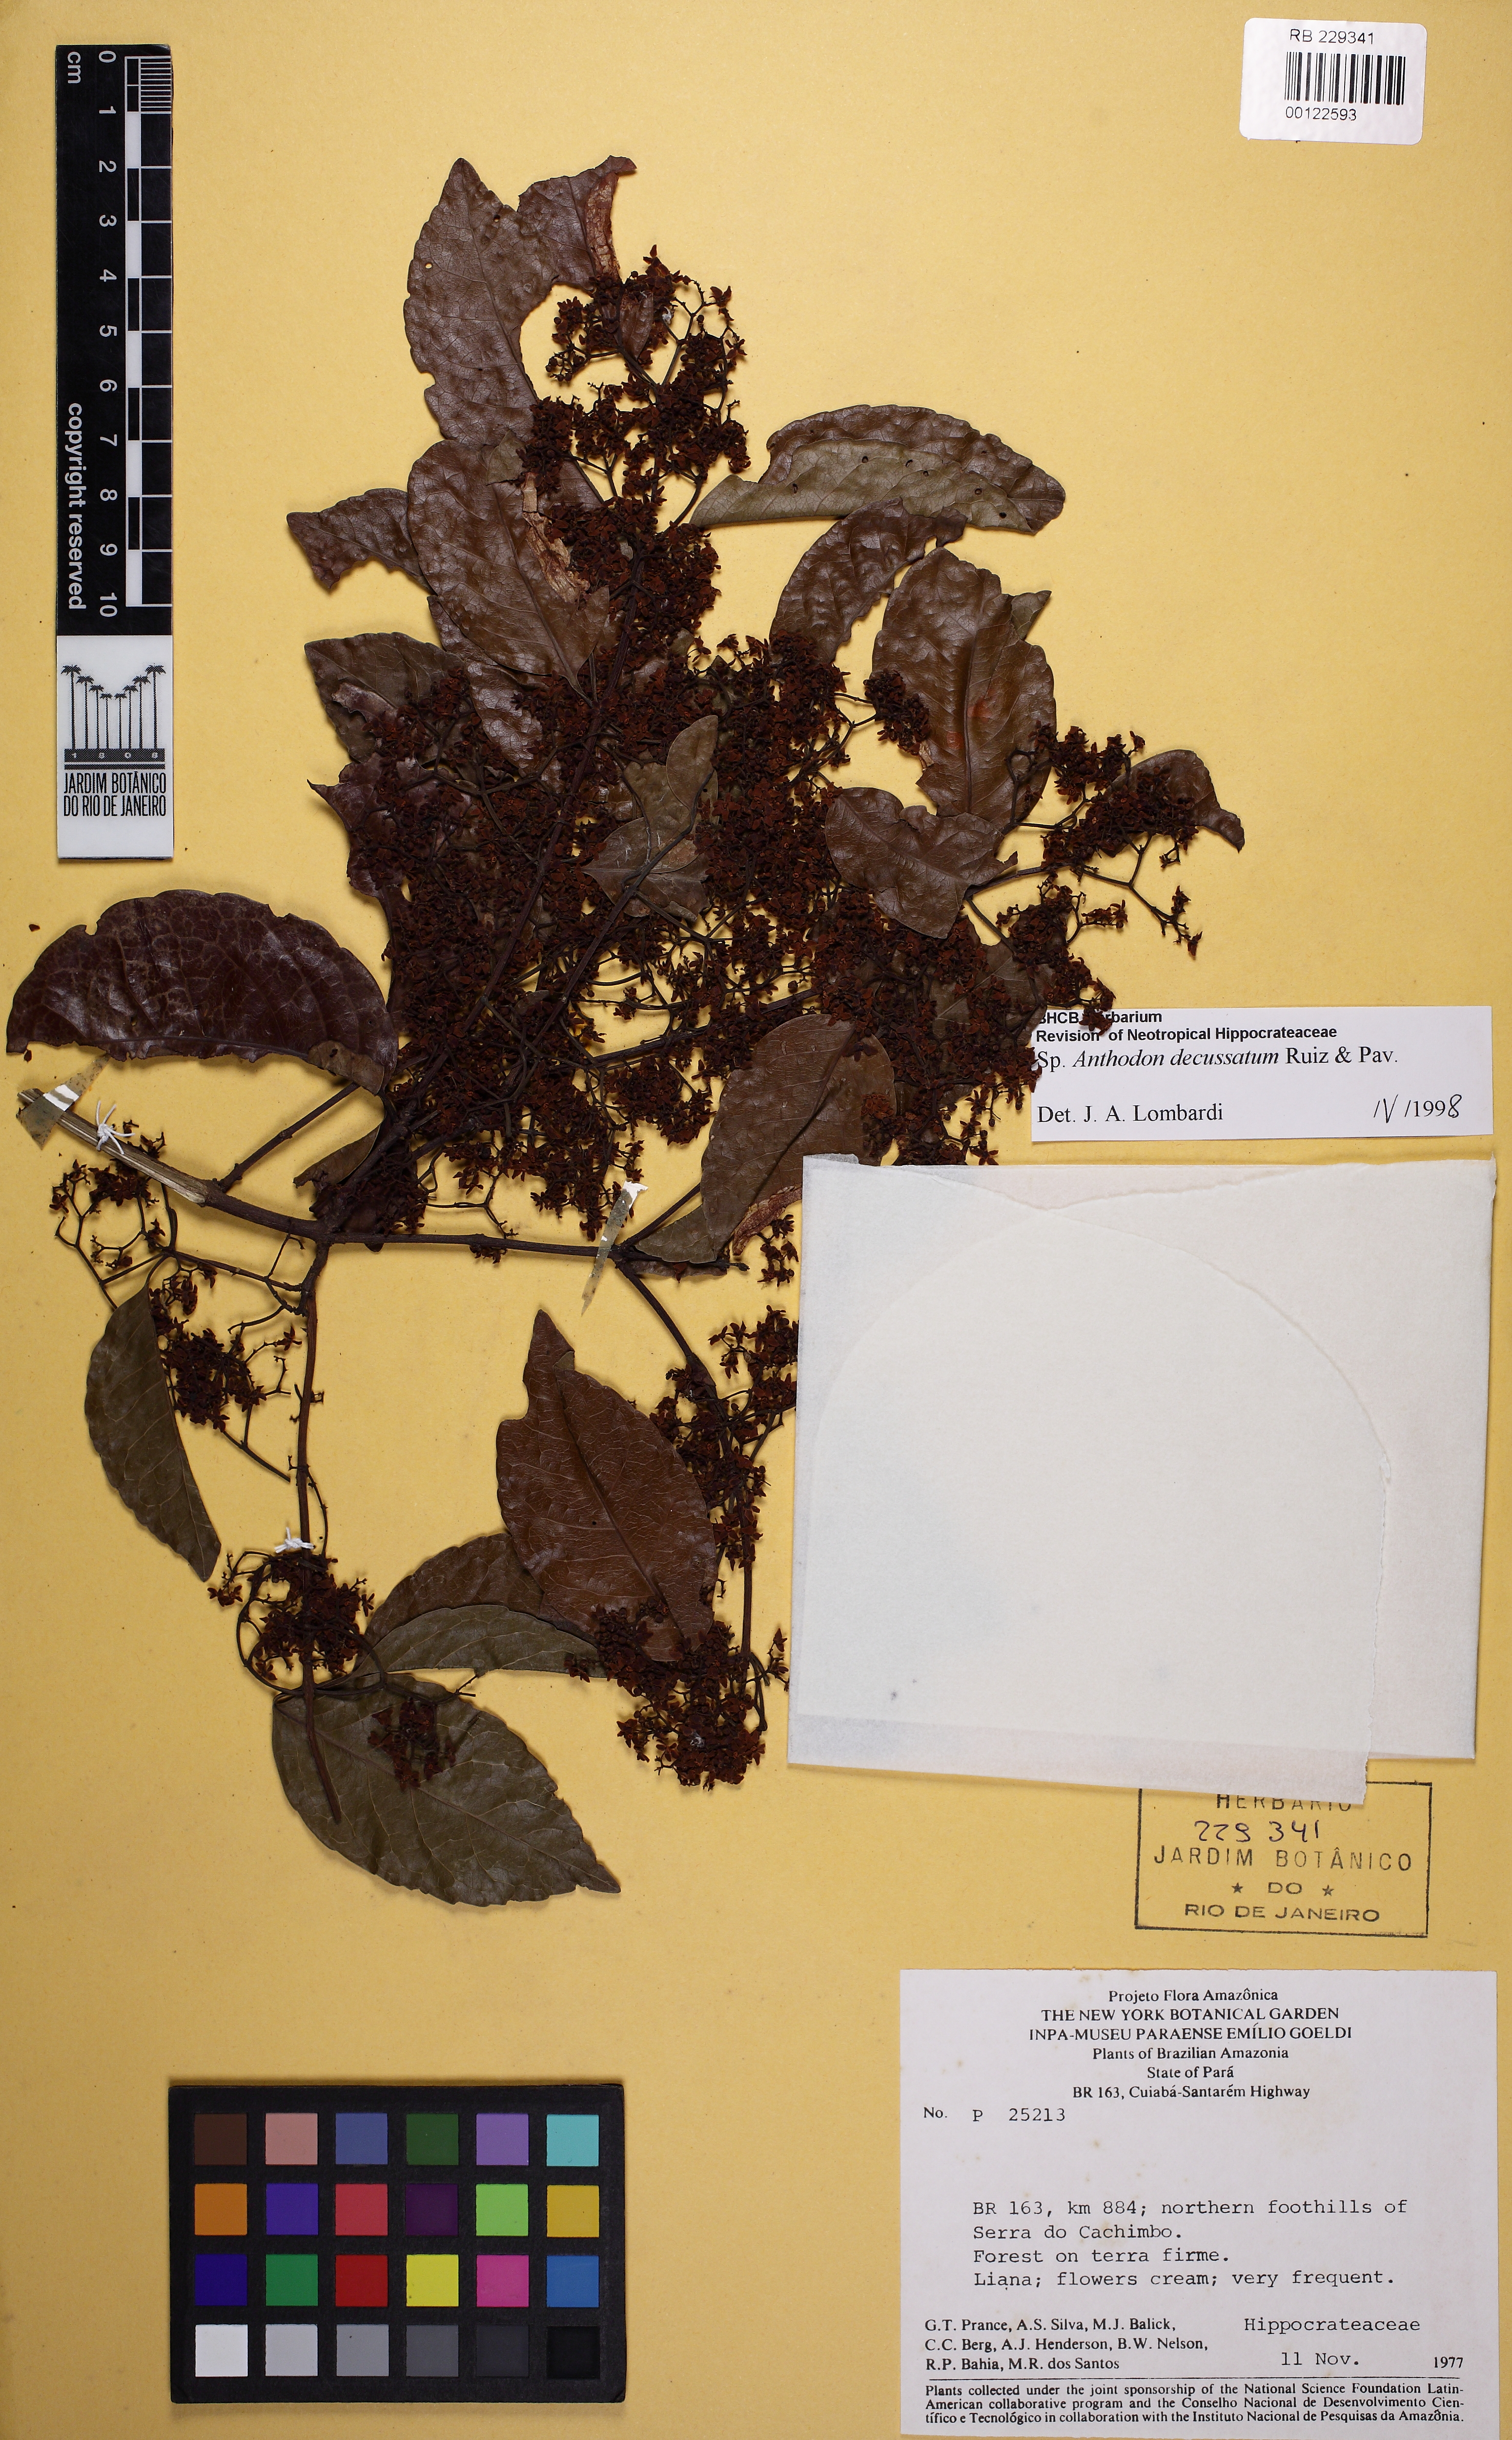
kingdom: Plantae
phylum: Tracheophyta
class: Magnoliopsida
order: Celastrales
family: Celastraceae
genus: Anthodon
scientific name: Anthodon decussatum
